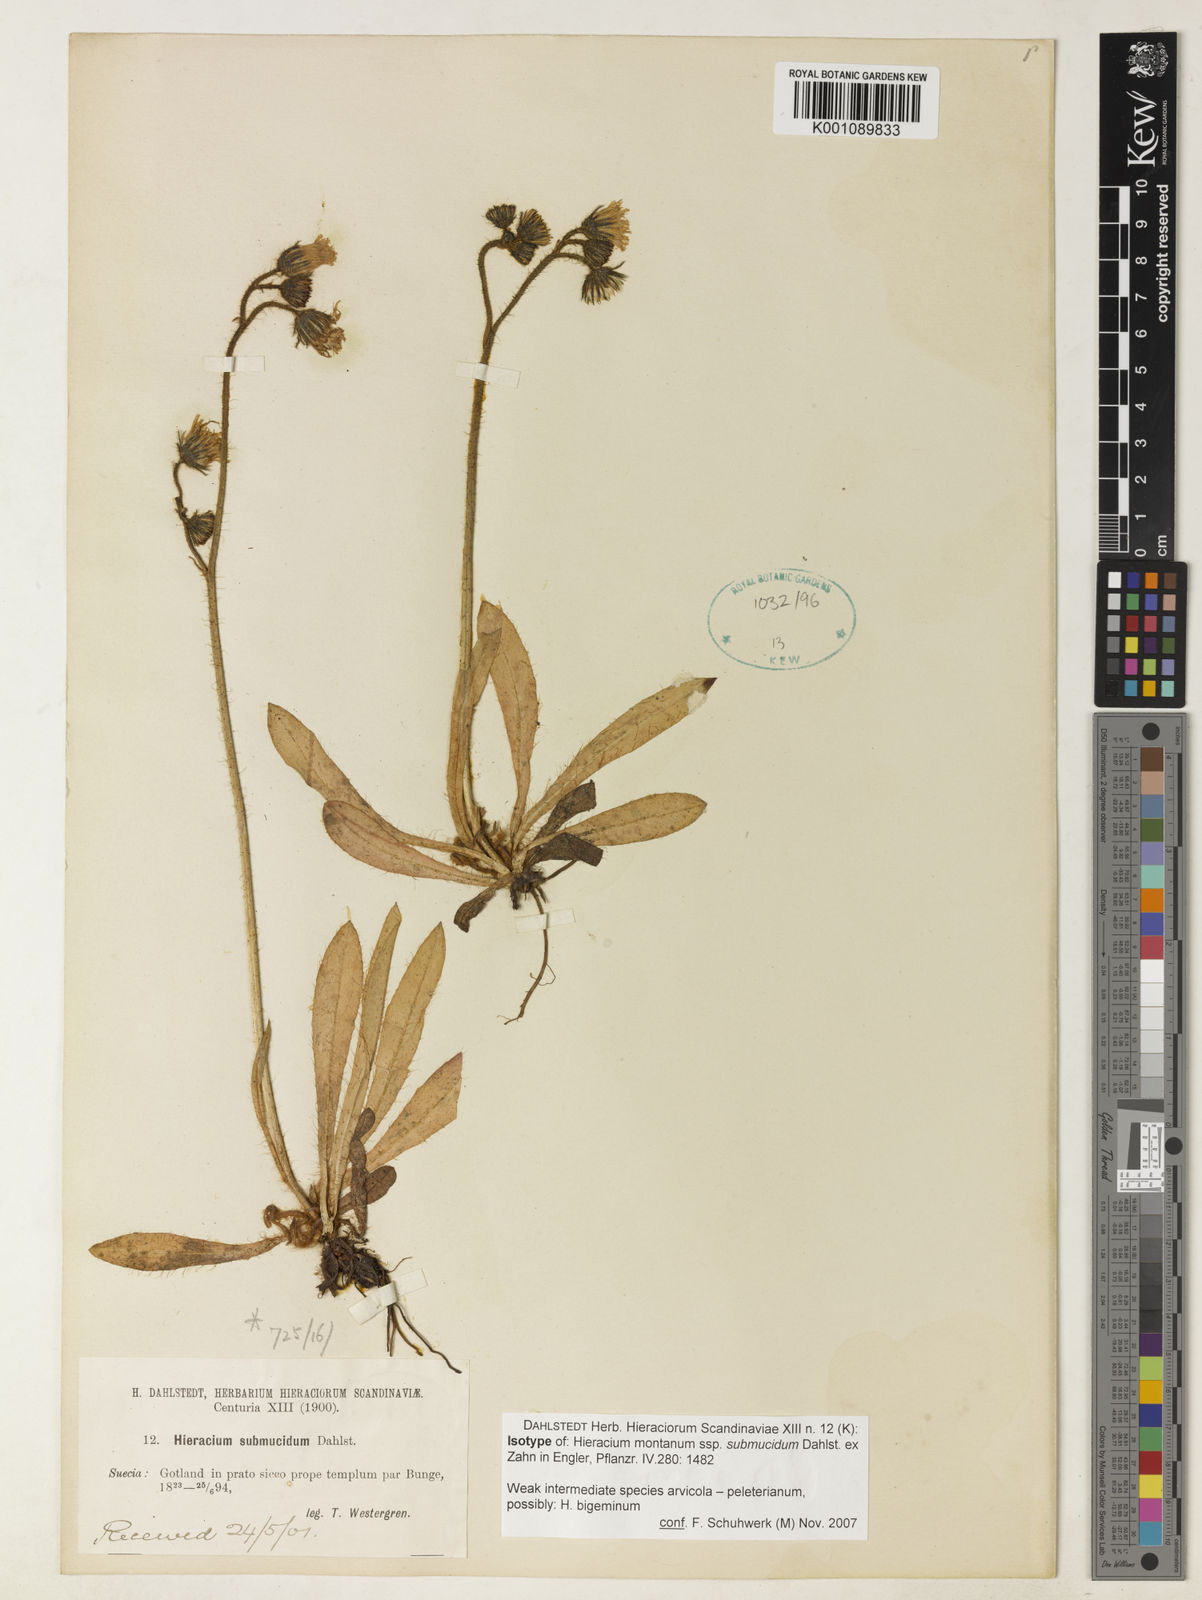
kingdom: Plantae
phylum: Tracheophyta
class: Magnoliopsida
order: Asterales
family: Asteraceae
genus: Hieracium
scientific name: Hieracium bigeminum
